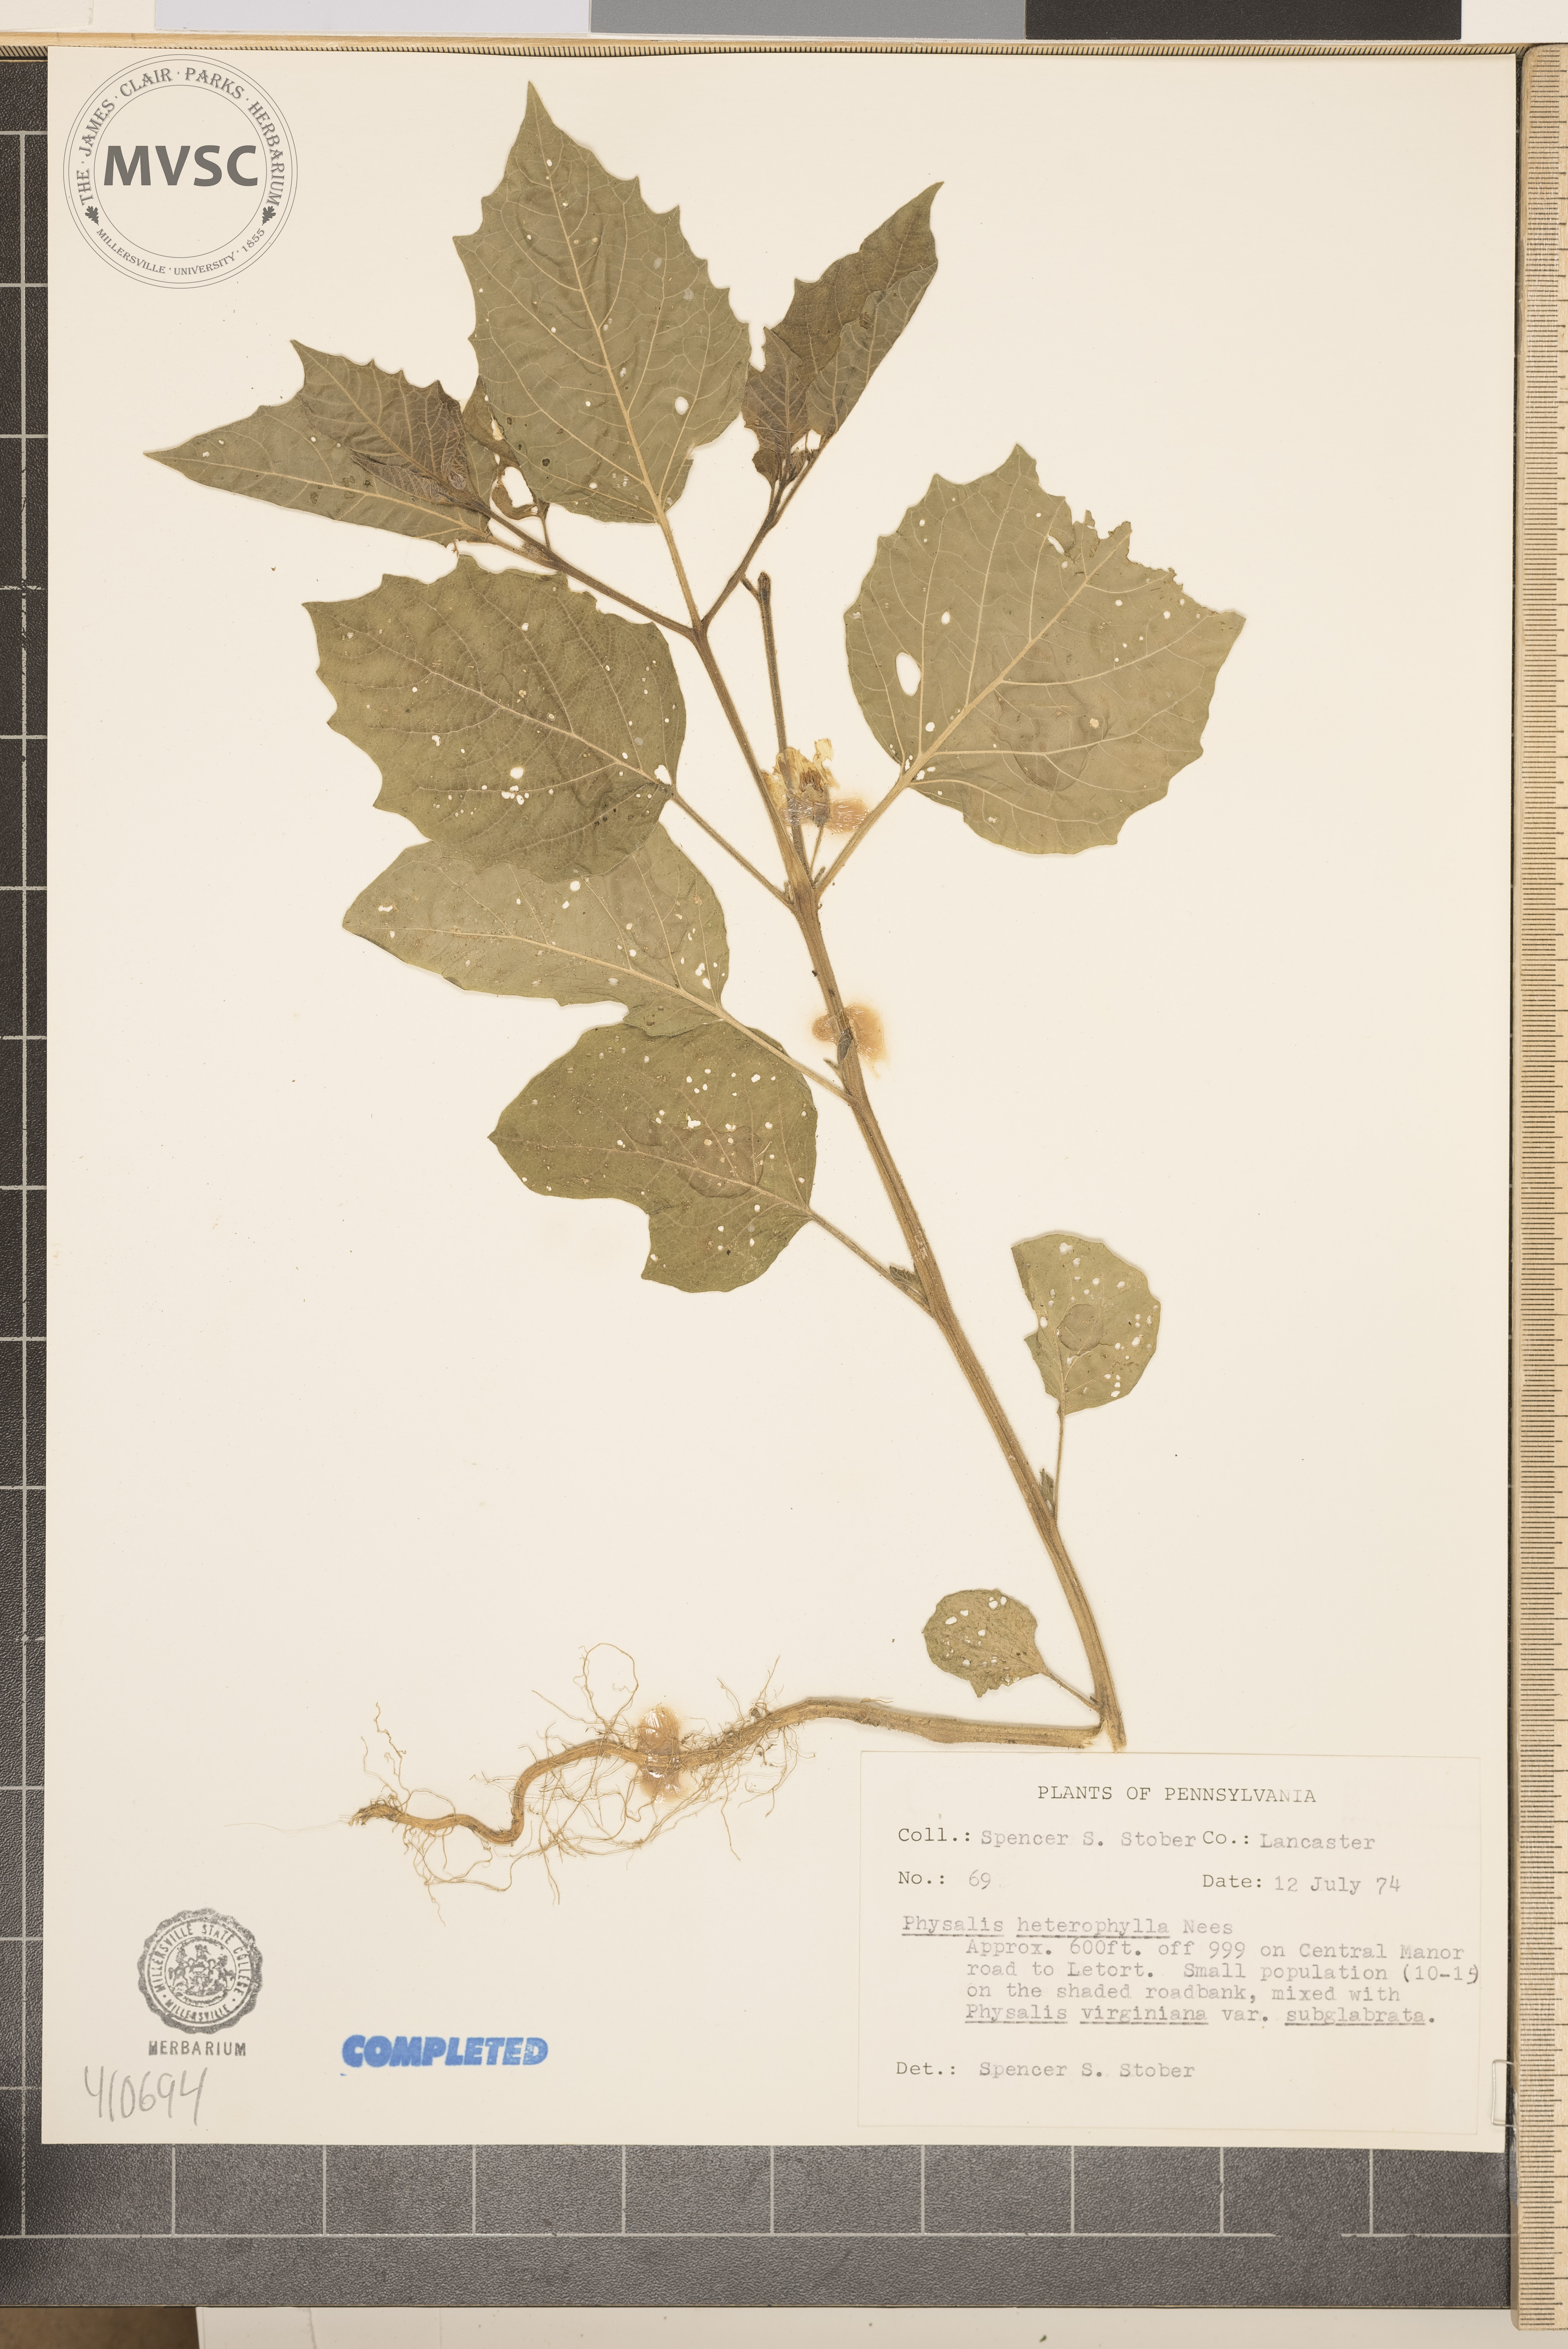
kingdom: Plantae
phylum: Tracheophyta
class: Magnoliopsida
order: Solanales
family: Solanaceae
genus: Physalis
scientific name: Physalis heterophylla
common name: Clammy ground-cherry
